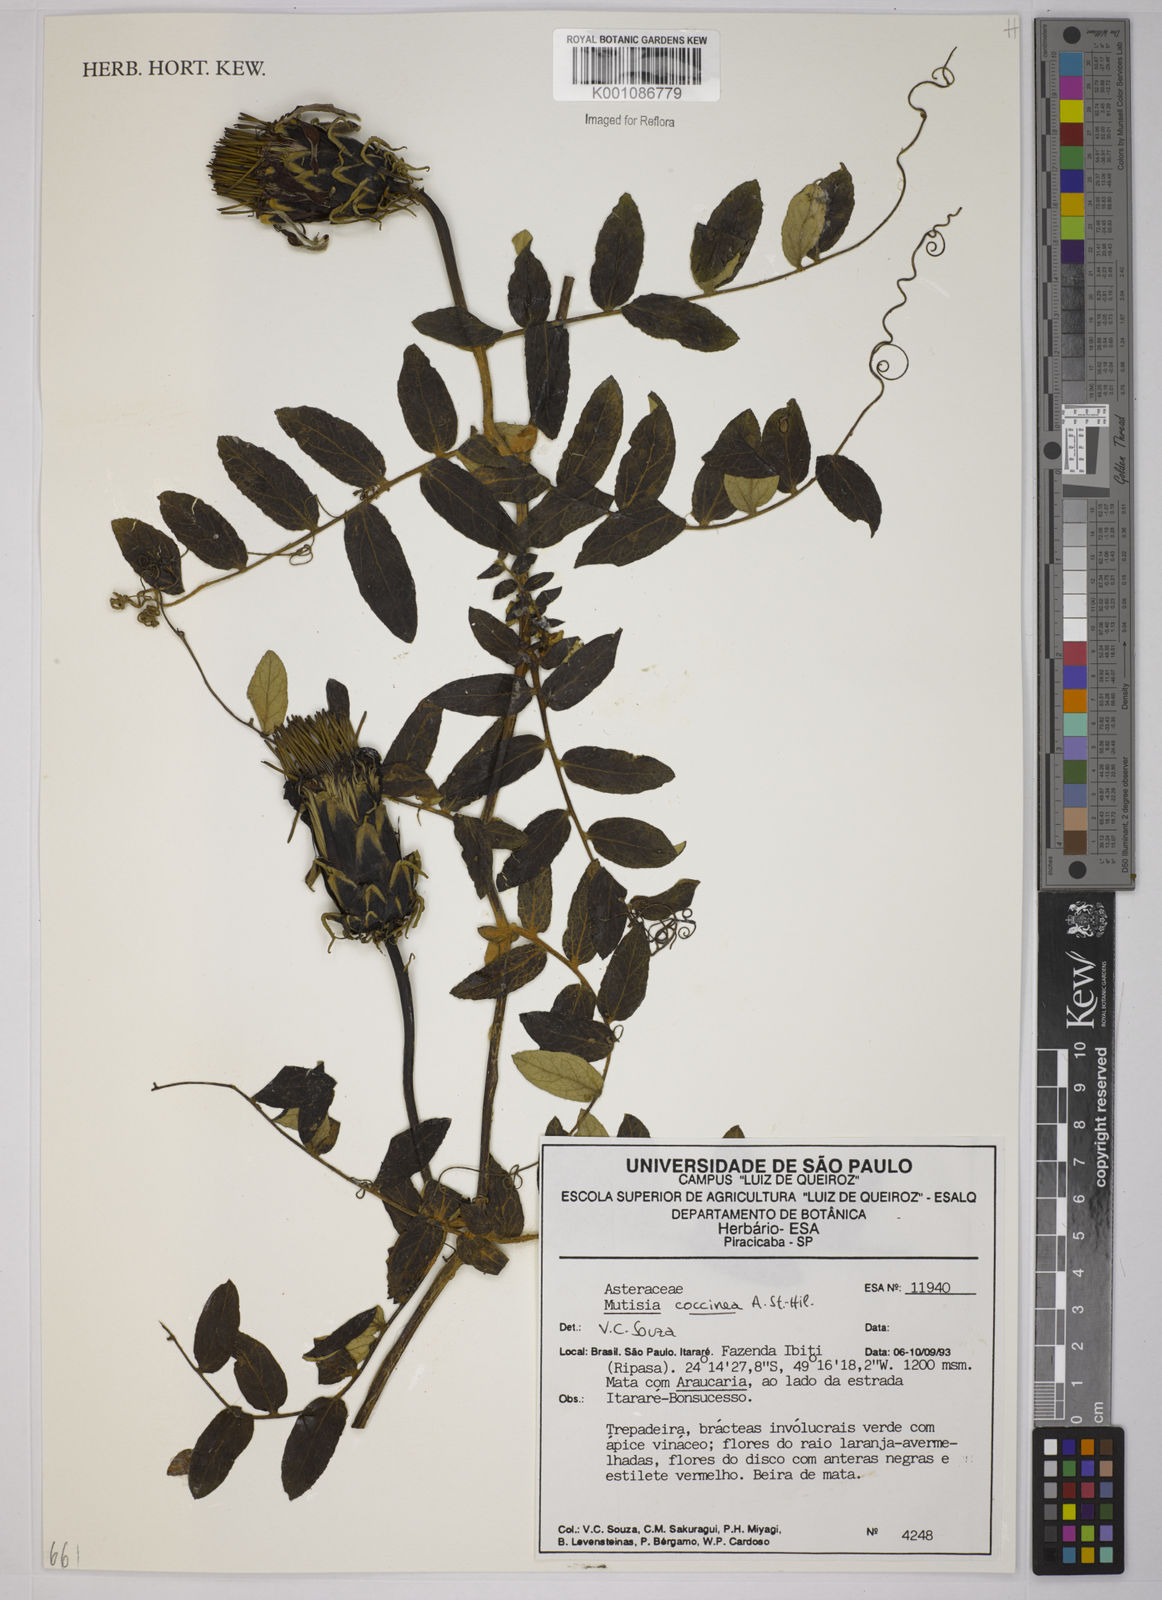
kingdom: Plantae
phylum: Tracheophyta
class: Magnoliopsida
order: Asterales
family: Asteraceae
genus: Mutisia
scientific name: Mutisia coccinea
